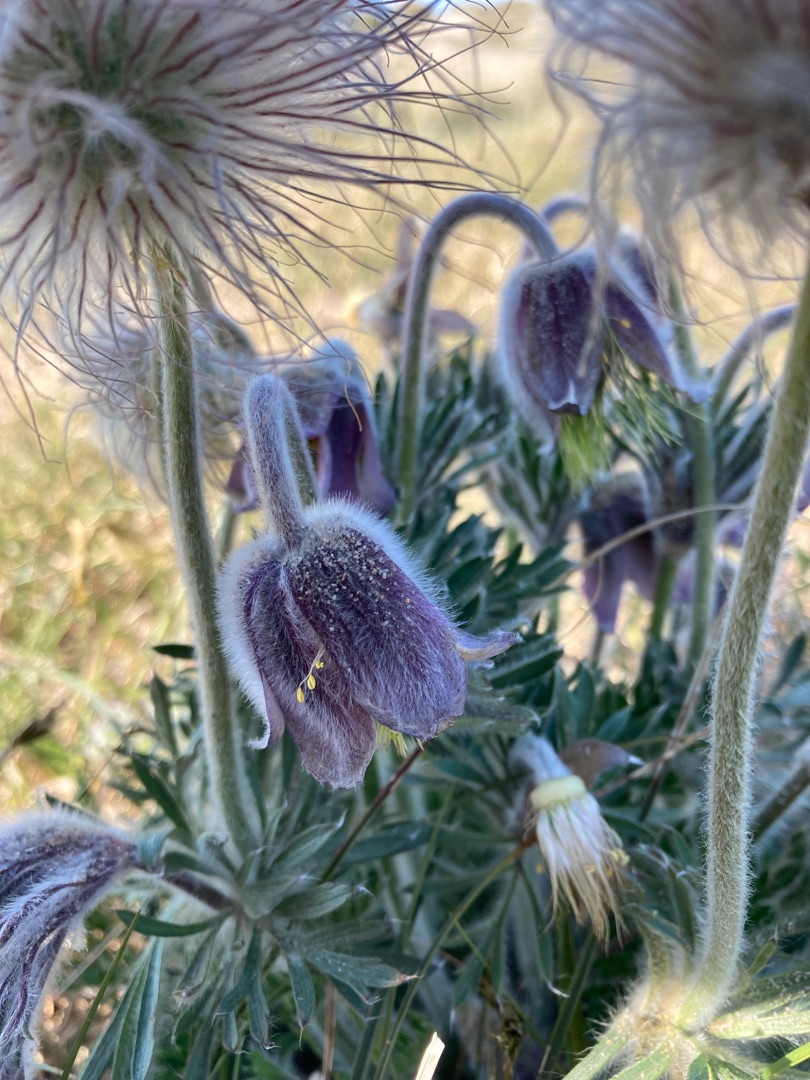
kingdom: Plantae
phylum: Tracheophyta
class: Magnoliopsida
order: Ranunculales
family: Ranunculaceae
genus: Pulsatilla
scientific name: Pulsatilla pratensis
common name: Nikkende kobjælde
